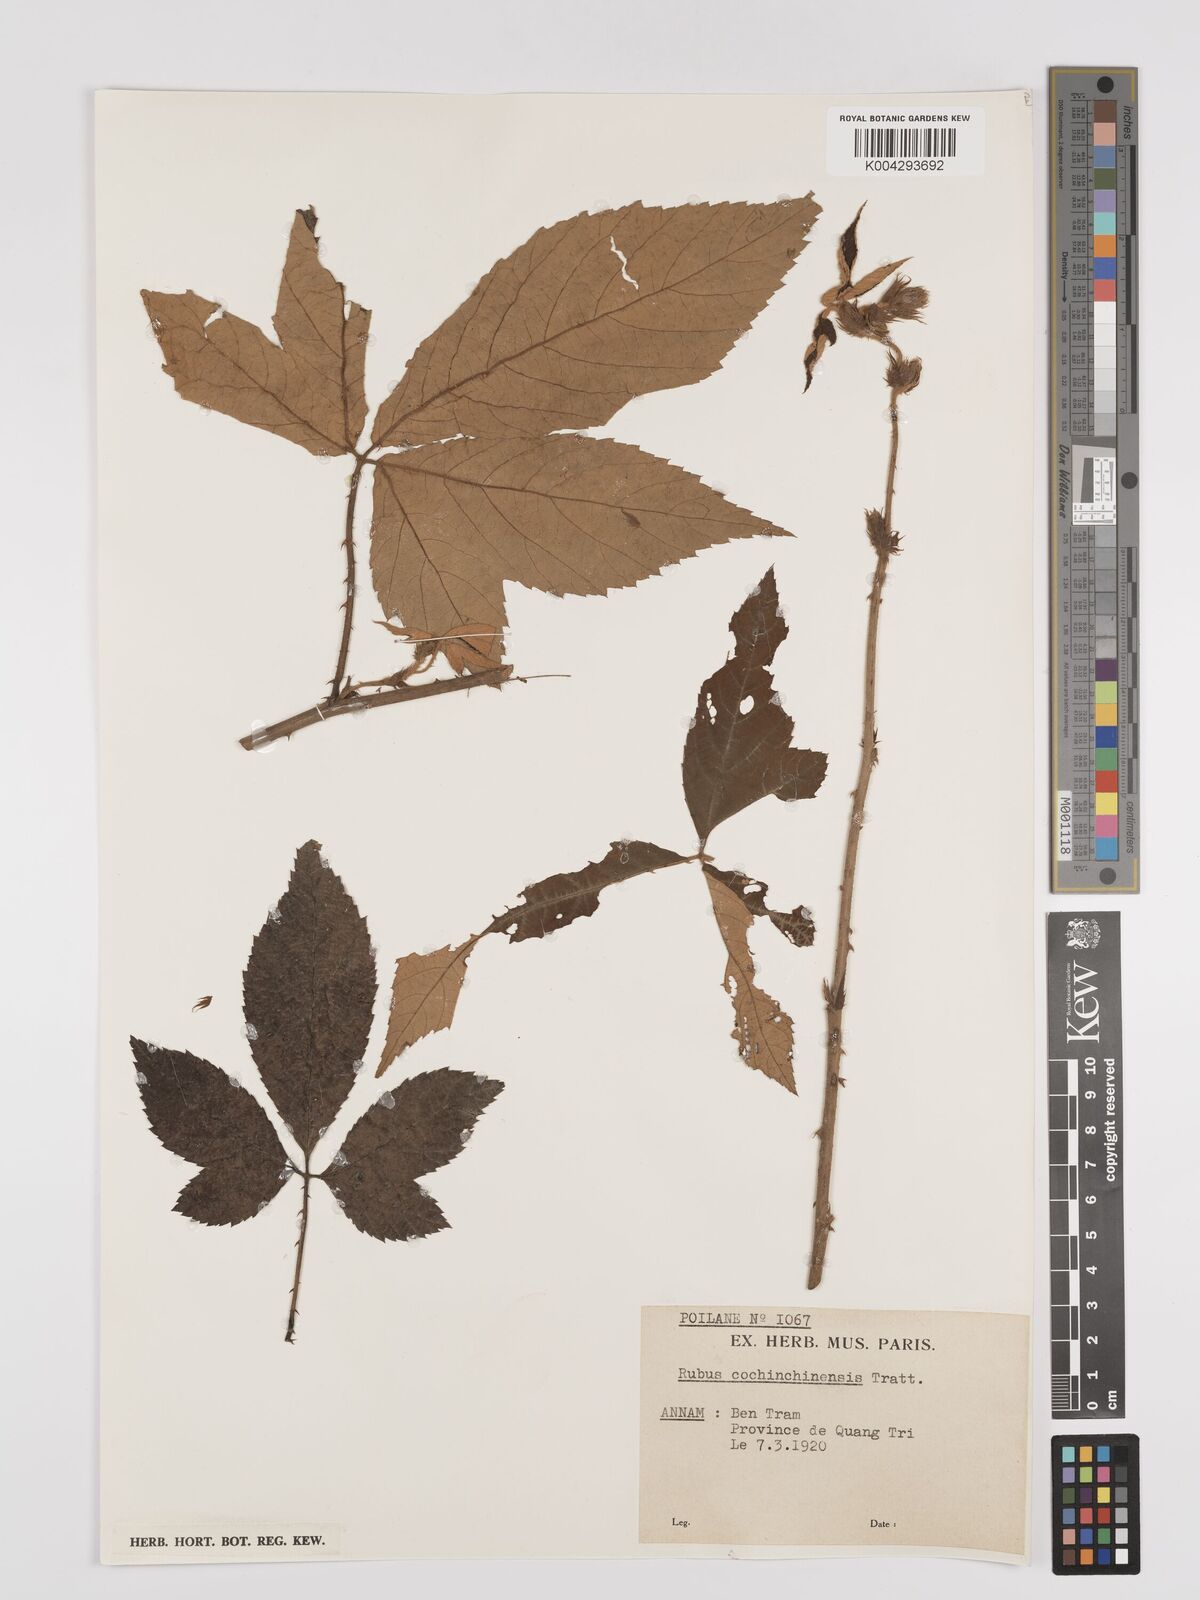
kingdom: Plantae
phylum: Tracheophyta
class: Magnoliopsida
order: Rosales
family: Rosaceae
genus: Rubus
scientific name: Rubus cochinchinensis
